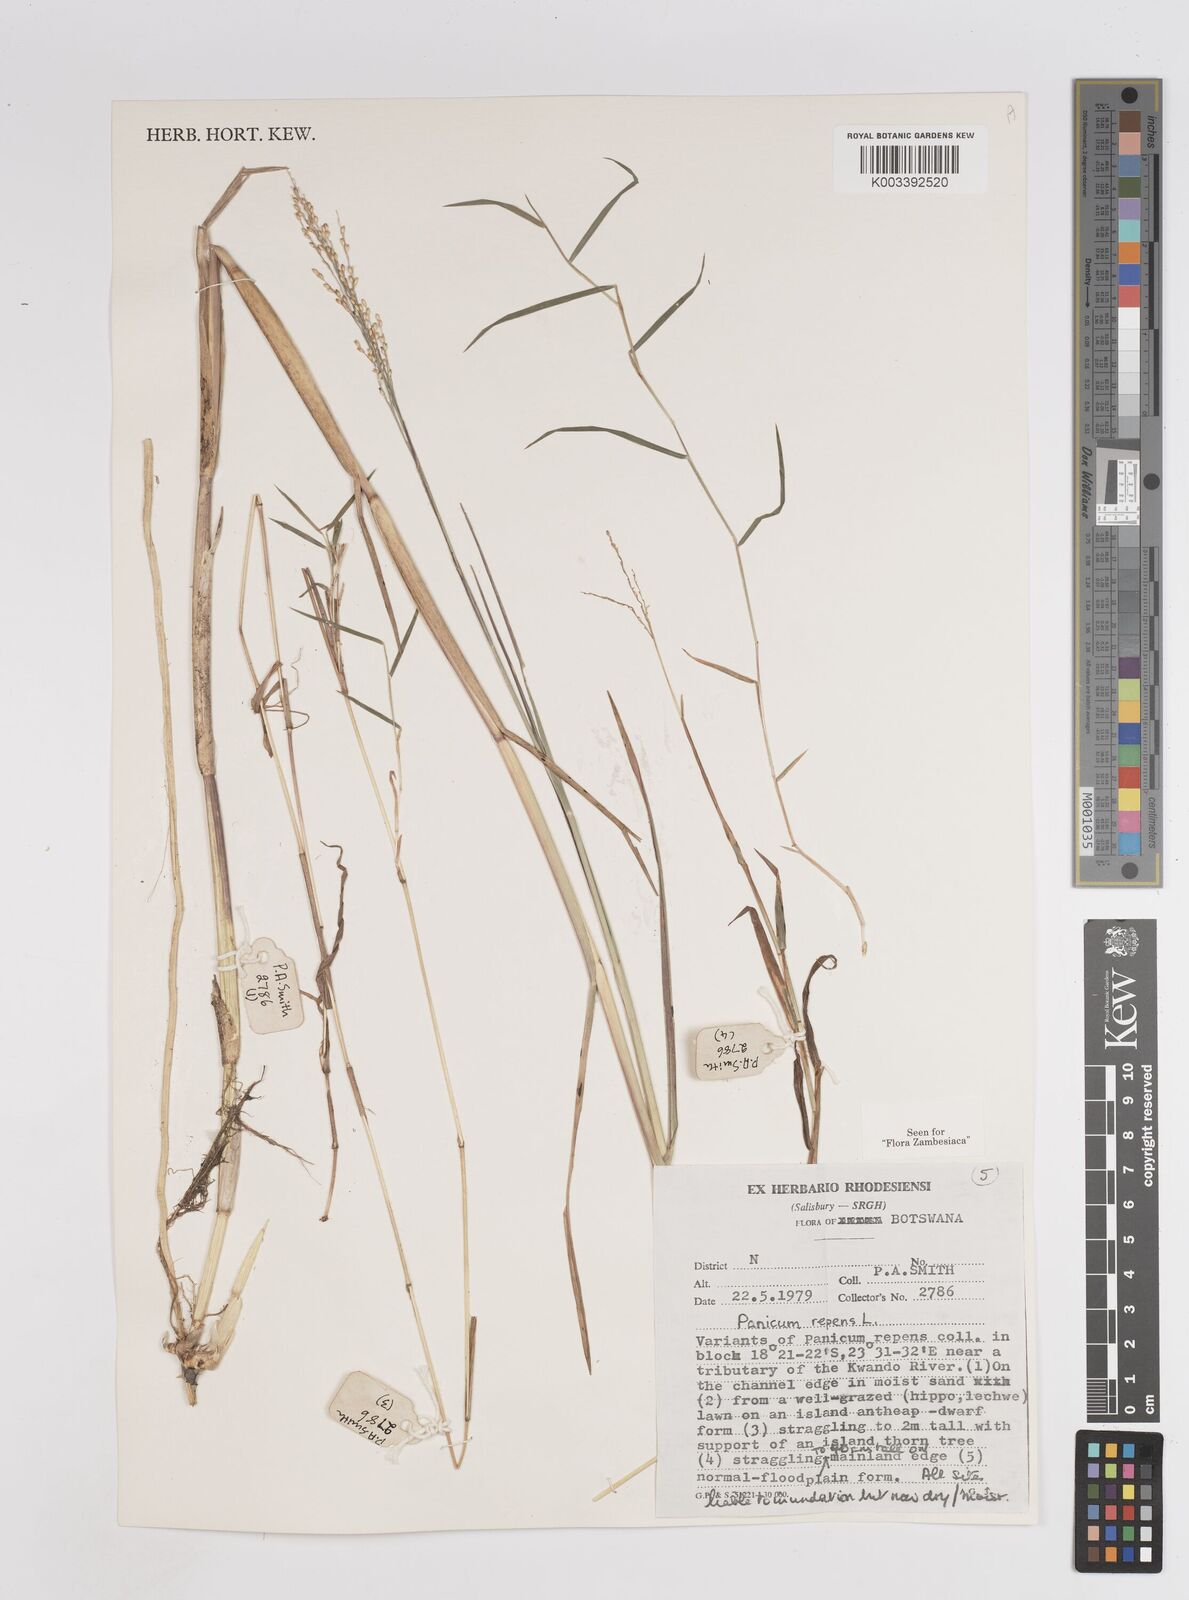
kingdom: Plantae
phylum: Tracheophyta
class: Liliopsida
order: Poales
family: Poaceae
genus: Panicum
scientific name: Panicum repens
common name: Torpedo grass
